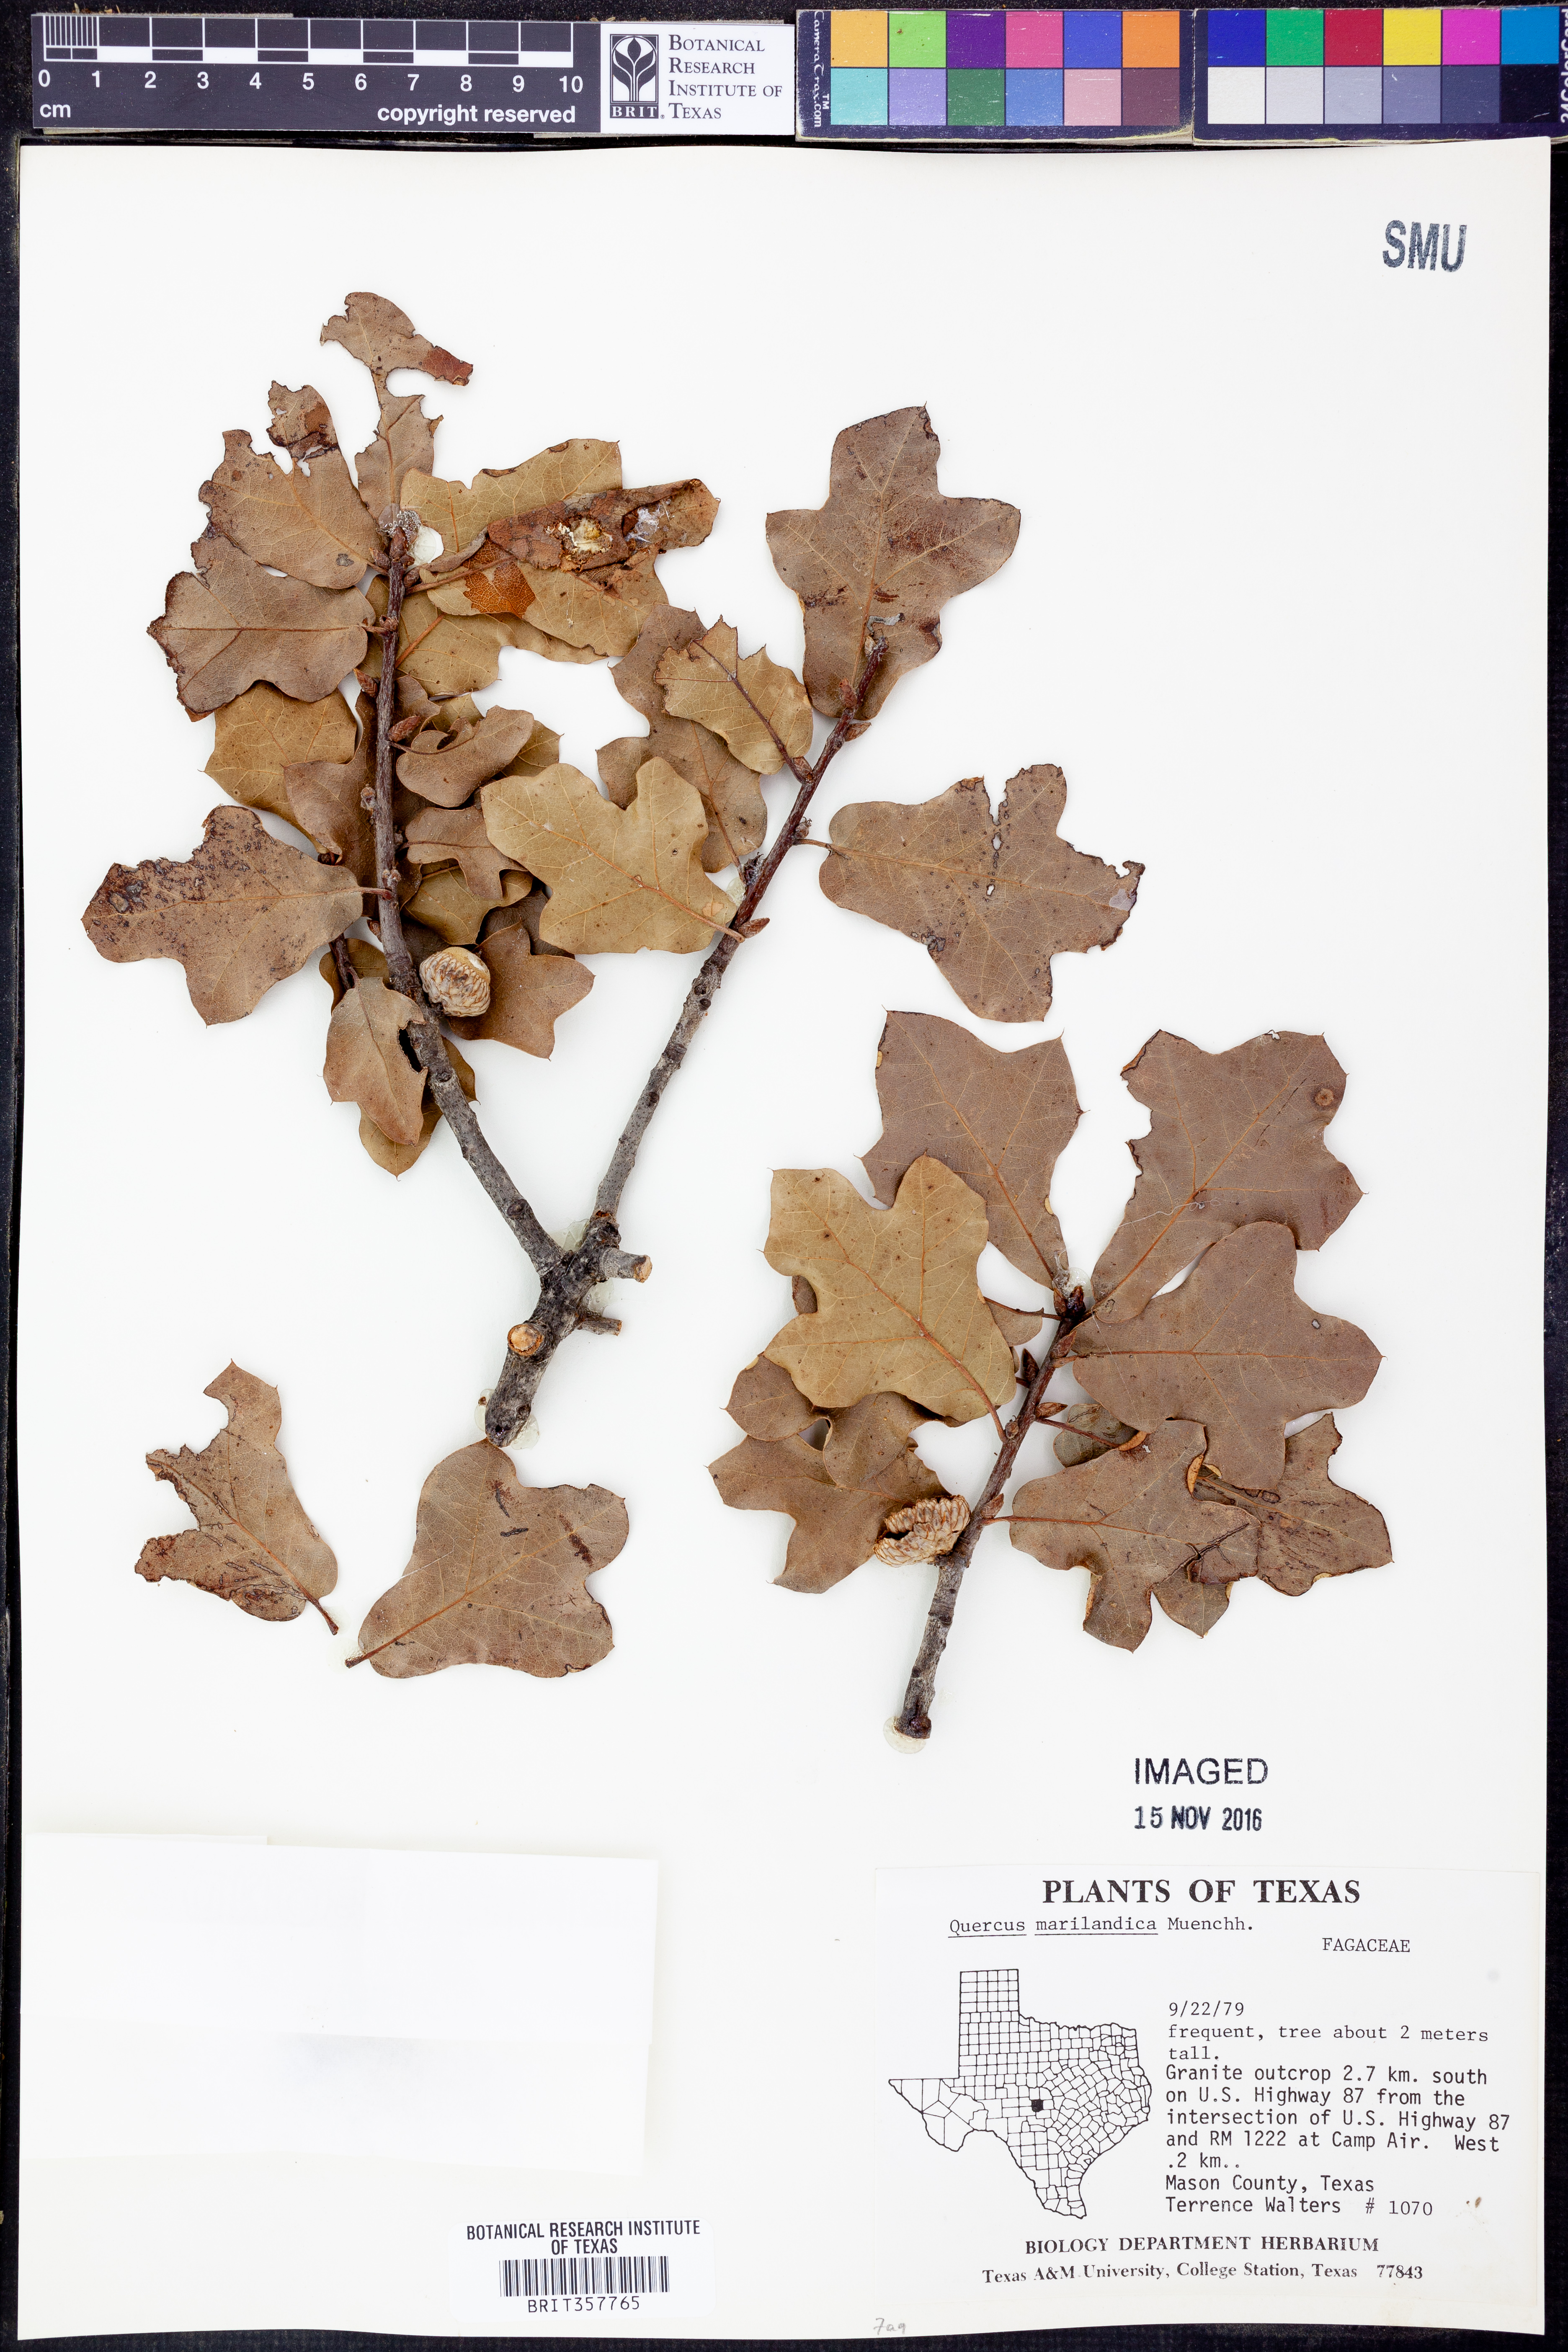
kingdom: Plantae
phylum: Tracheophyta
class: Magnoliopsida
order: Fagales
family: Fagaceae
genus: Quercus
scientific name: Quercus marilandica
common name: Blackjack oak
